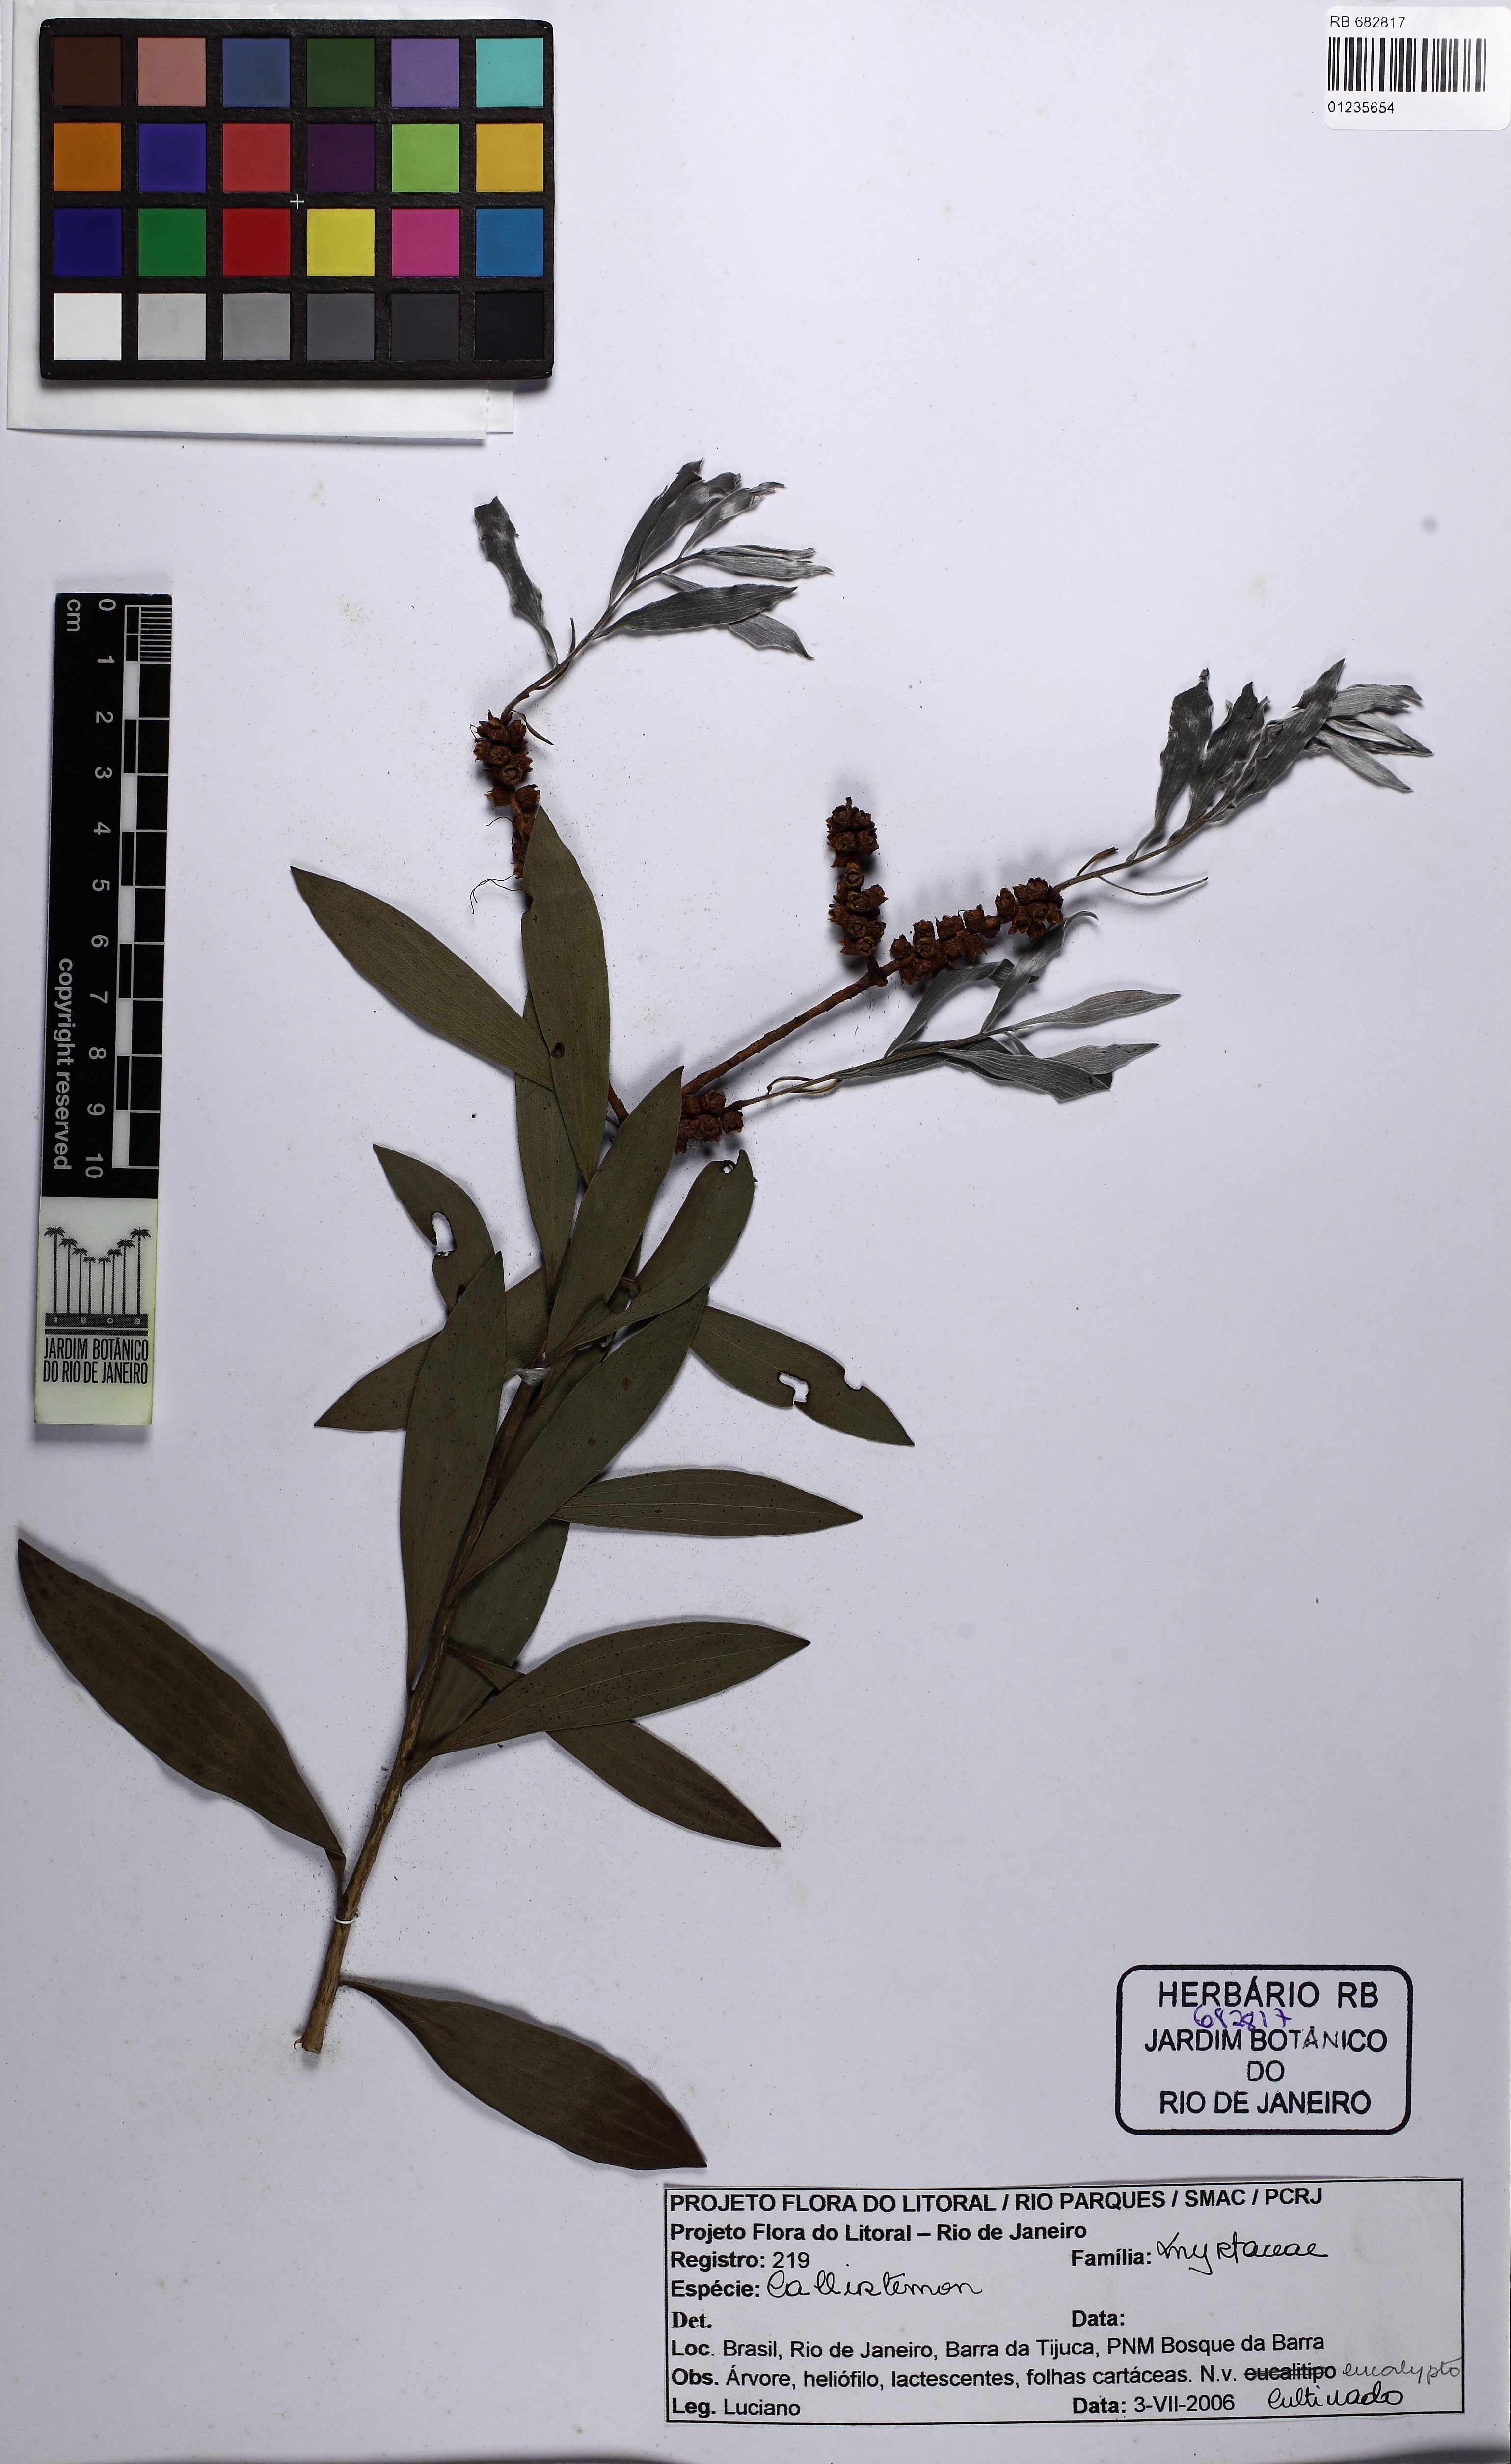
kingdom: Plantae
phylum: Tracheophyta
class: Magnoliopsida
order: Myrtales
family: Myrtaceae
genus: Callistemon
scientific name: Callistemon
